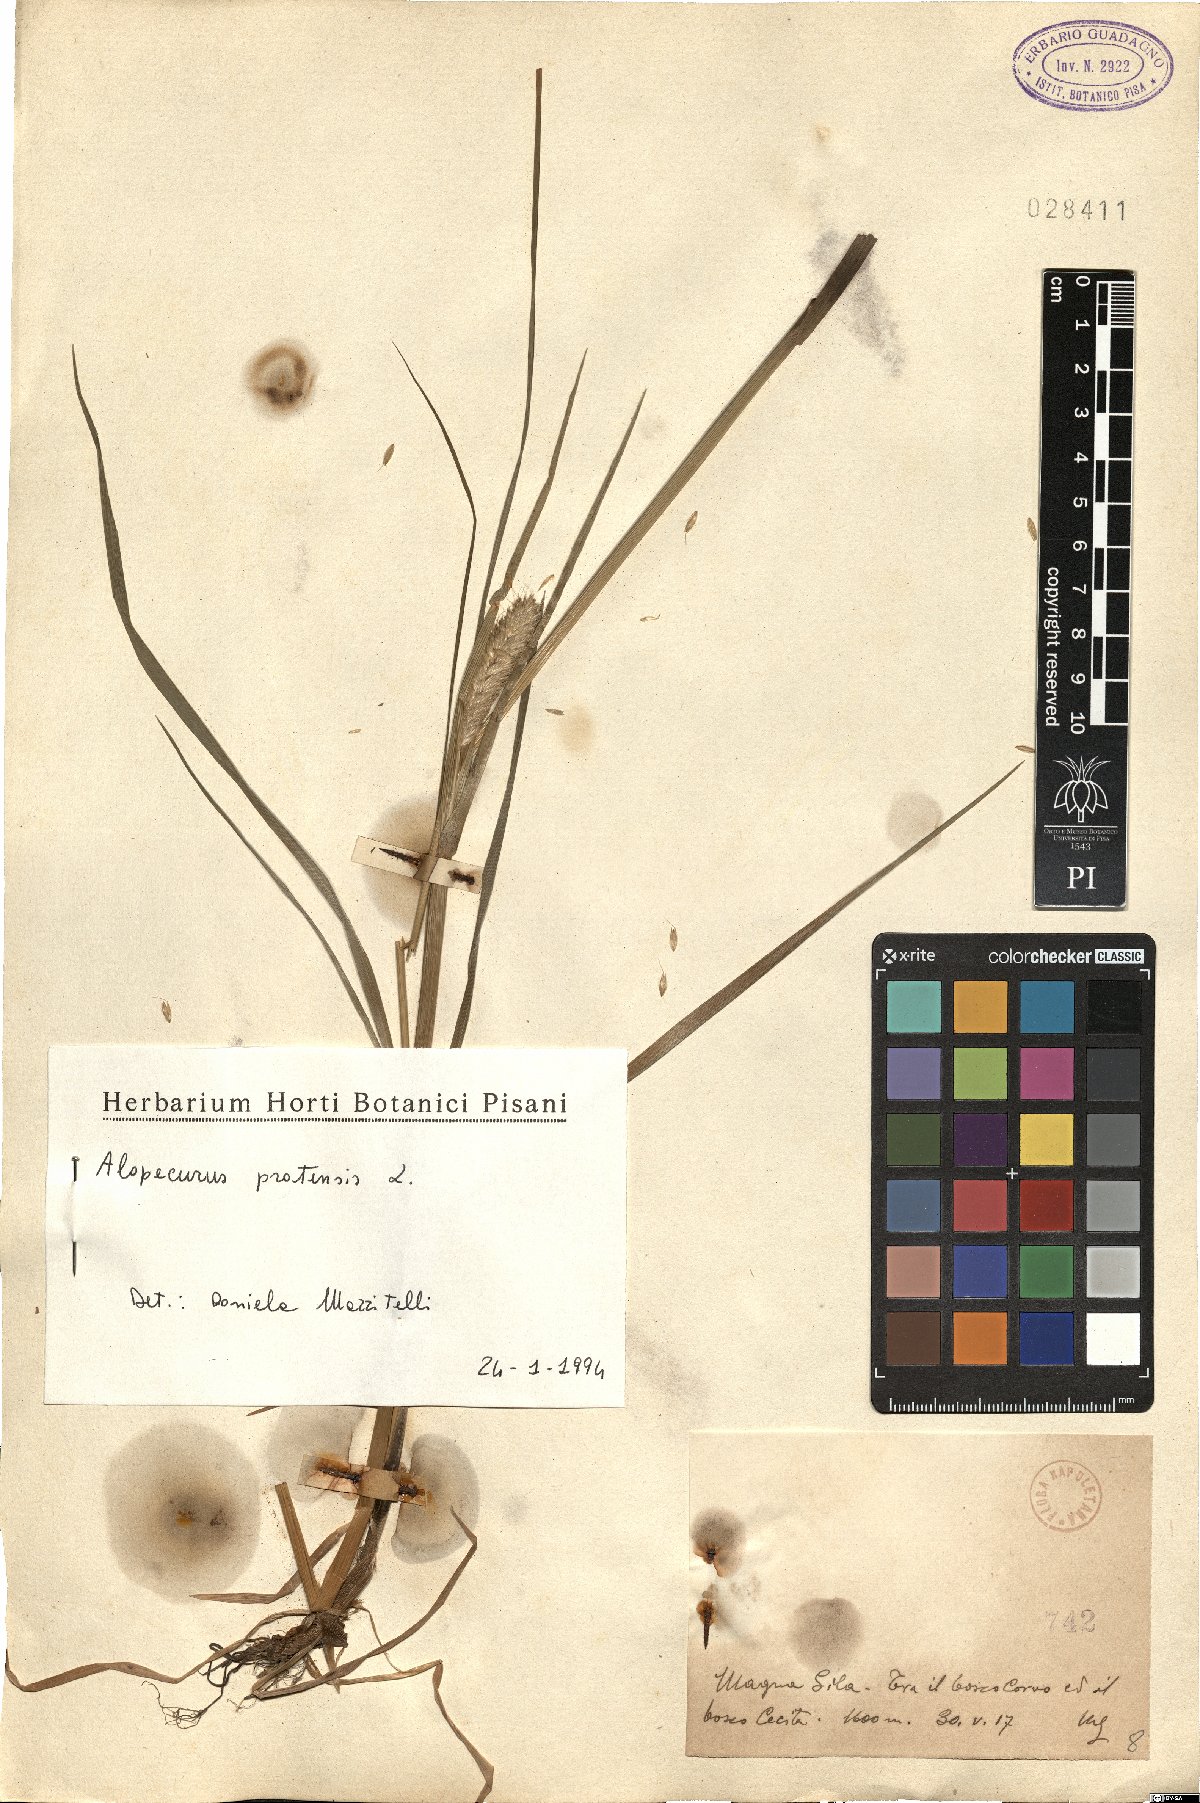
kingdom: Plantae
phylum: Tracheophyta
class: Liliopsida
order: Poales
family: Poaceae
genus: Alopecurus
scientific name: Alopecurus pratensis
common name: Meadow foxtail
